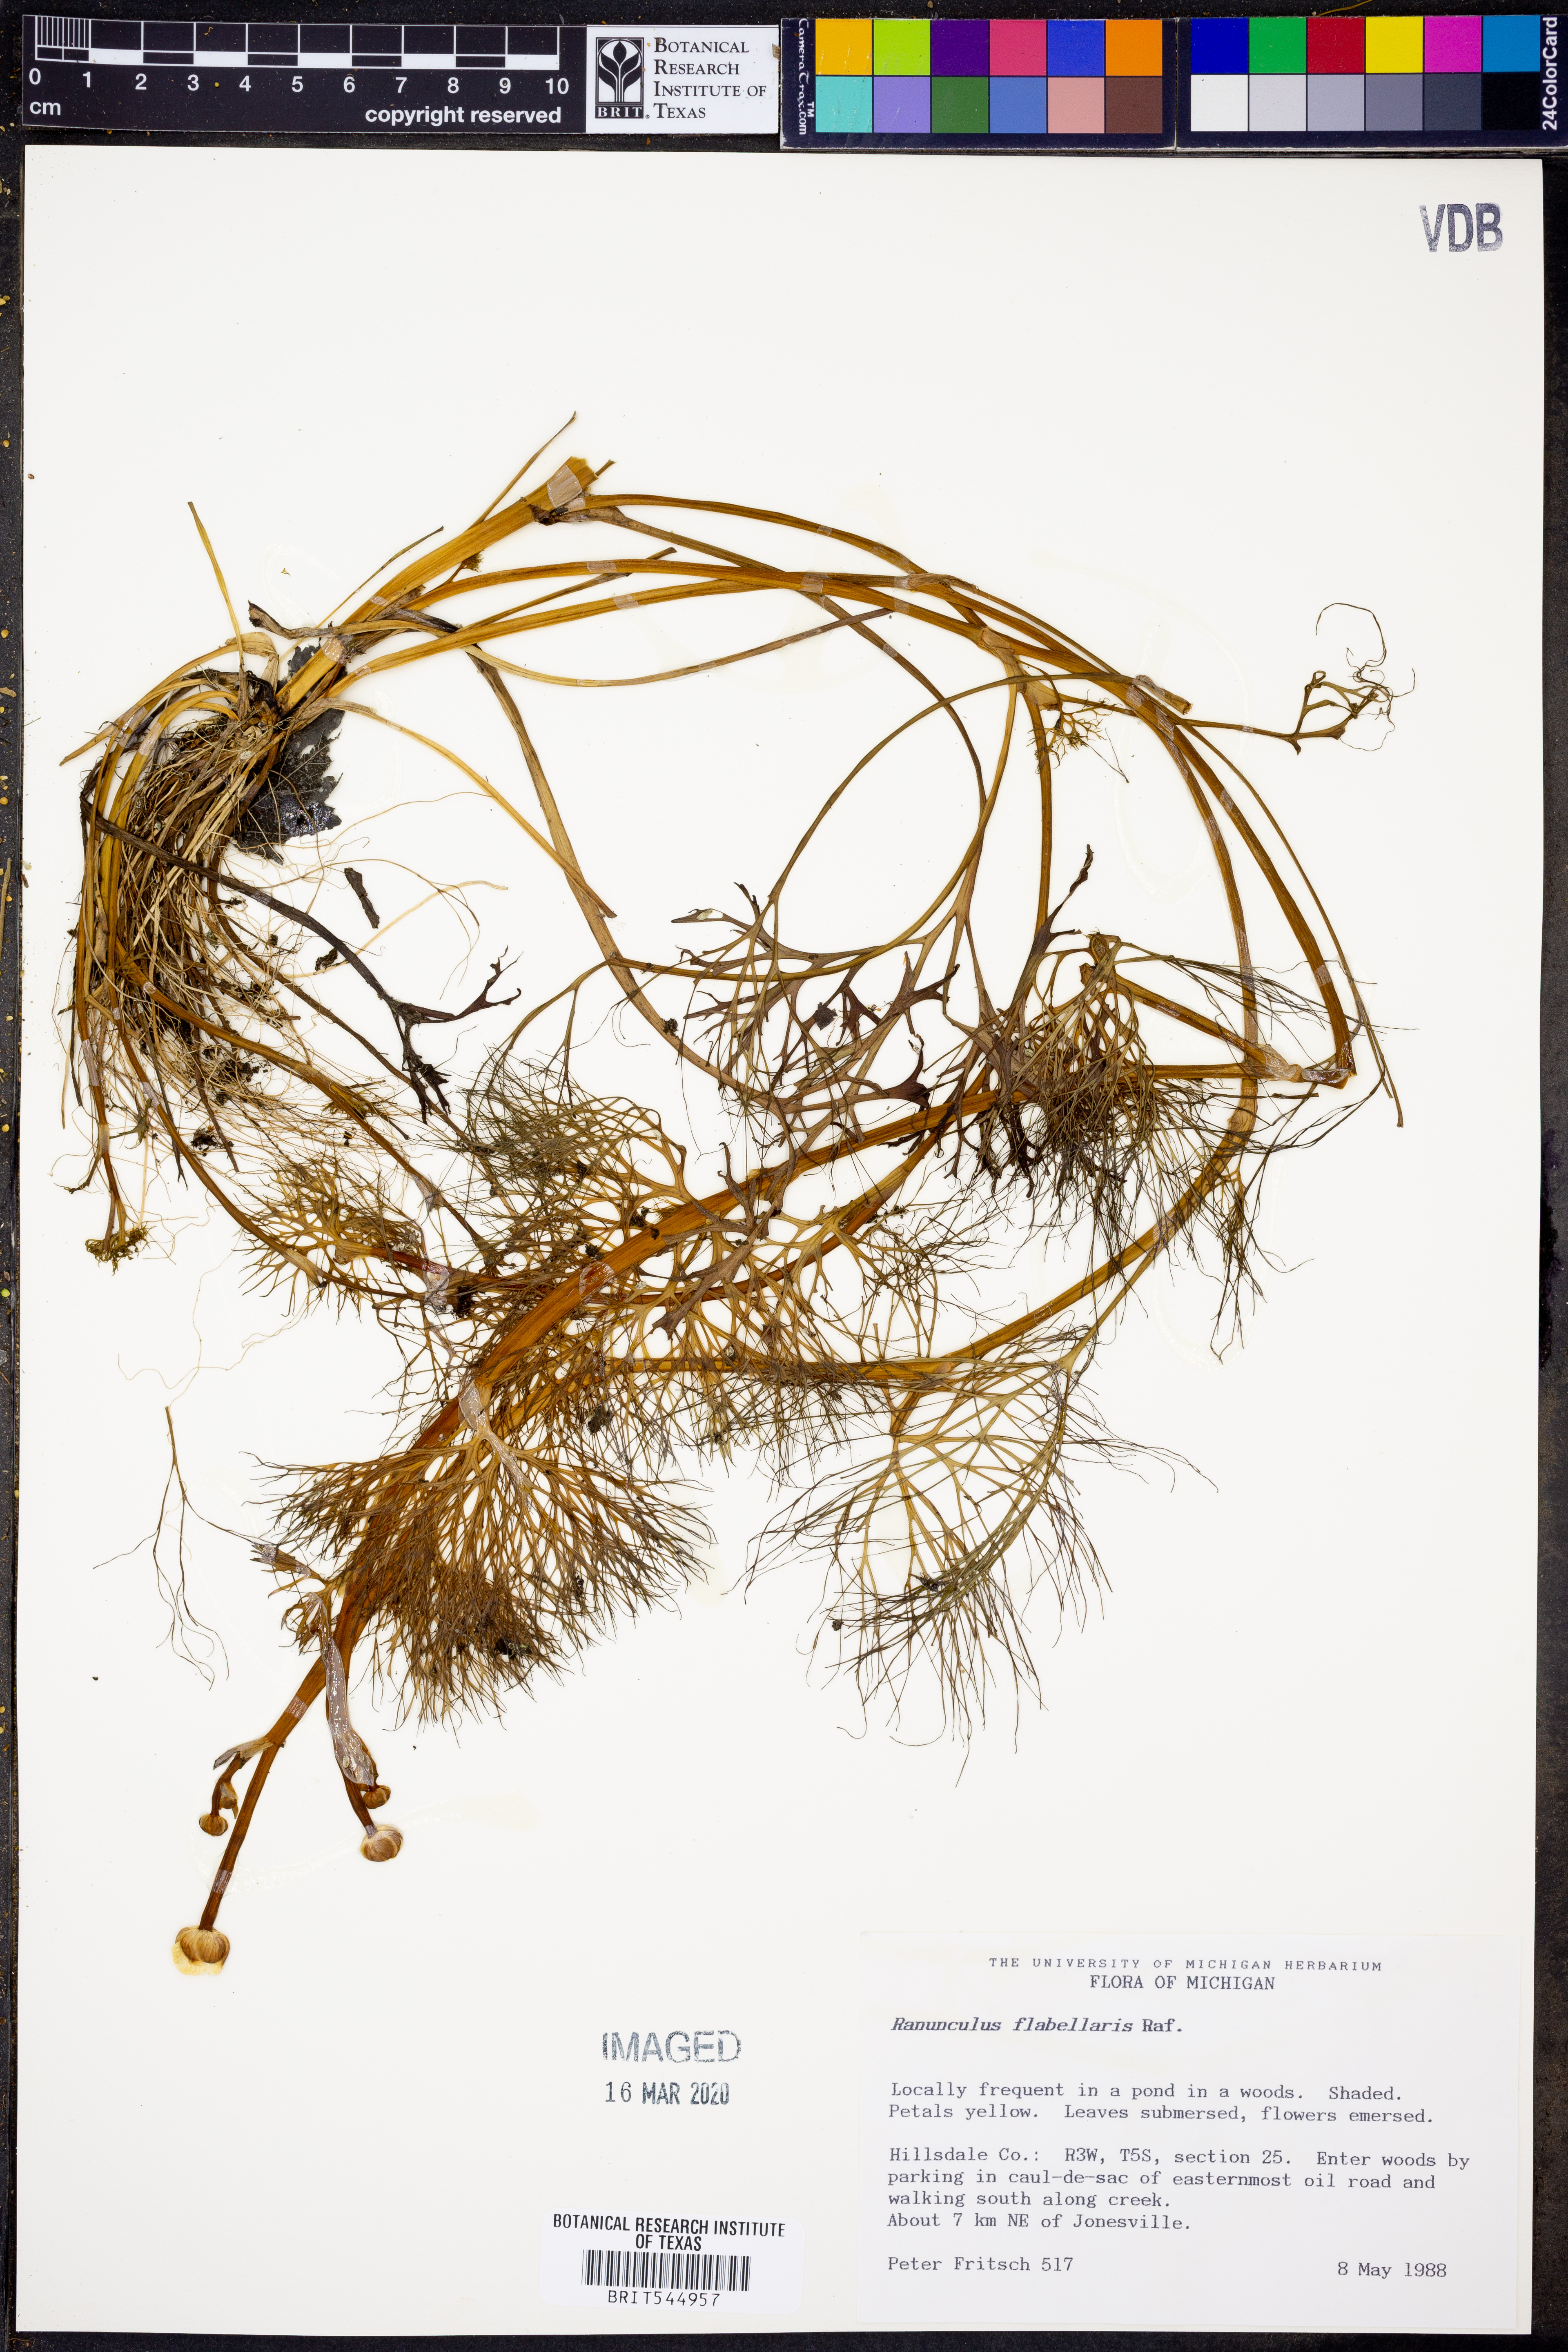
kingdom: Plantae
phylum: Tracheophyta
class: Magnoliopsida
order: Ranunculales
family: Ranunculaceae
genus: Ranunculus
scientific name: Ranunculus flabellaris
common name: Yellow water-crowfoot
